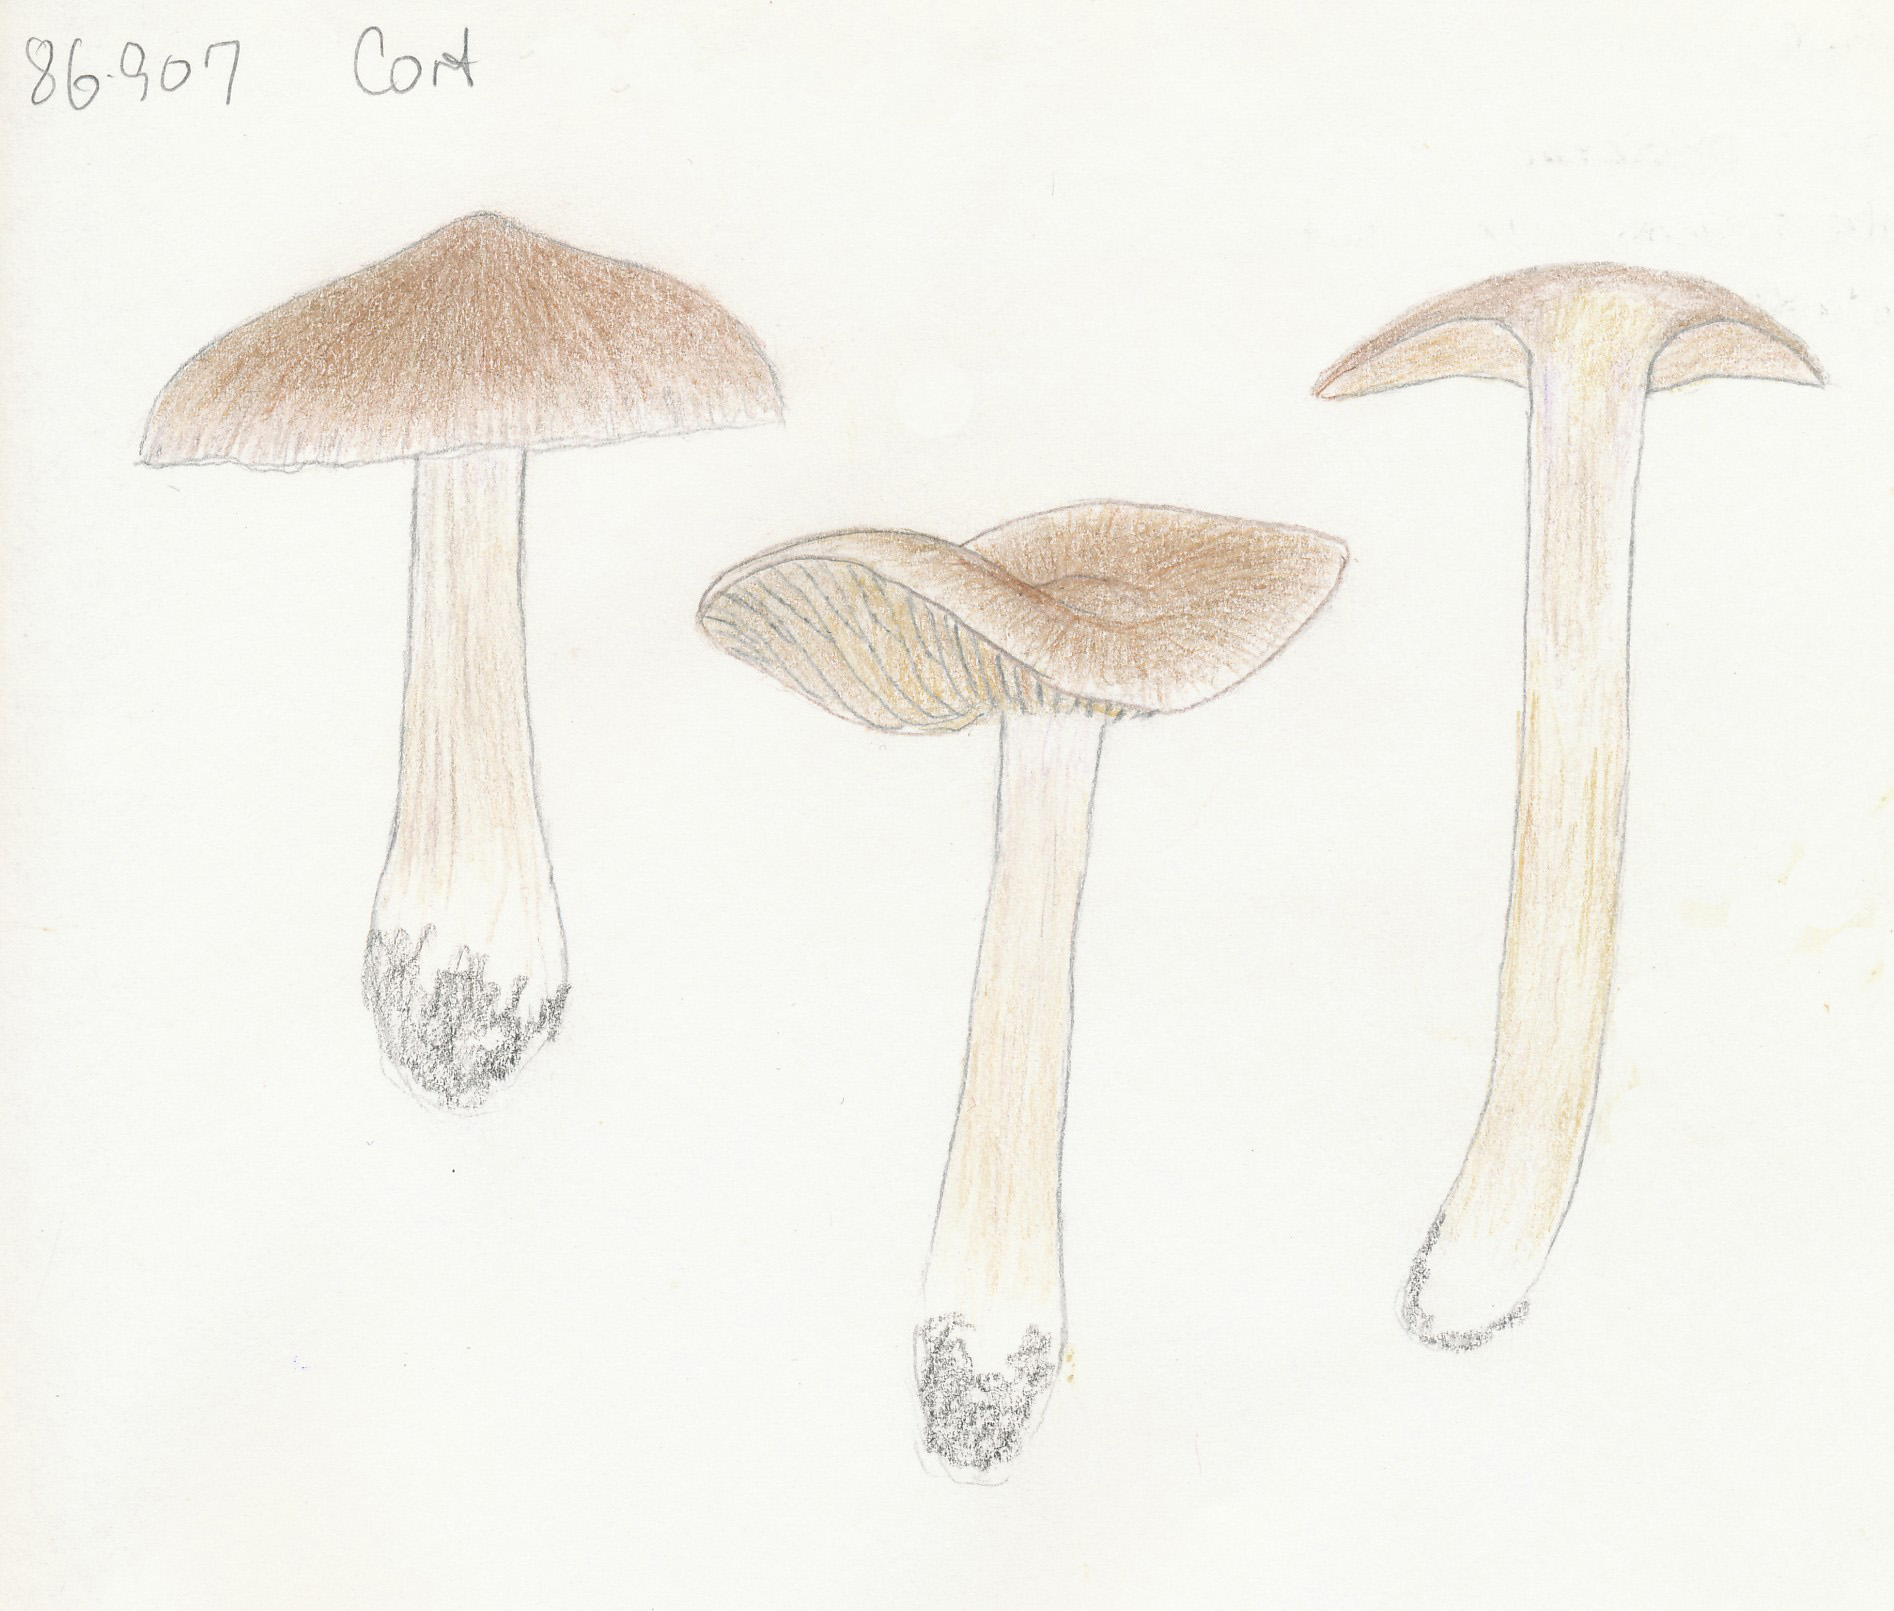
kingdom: Fungi
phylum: Basidiomycota
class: Agaricomycetes
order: Agaricales
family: Cortinariaceae
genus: Cortinarius
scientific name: Cortinarius kauffmanianus
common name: plantage-slørhat
